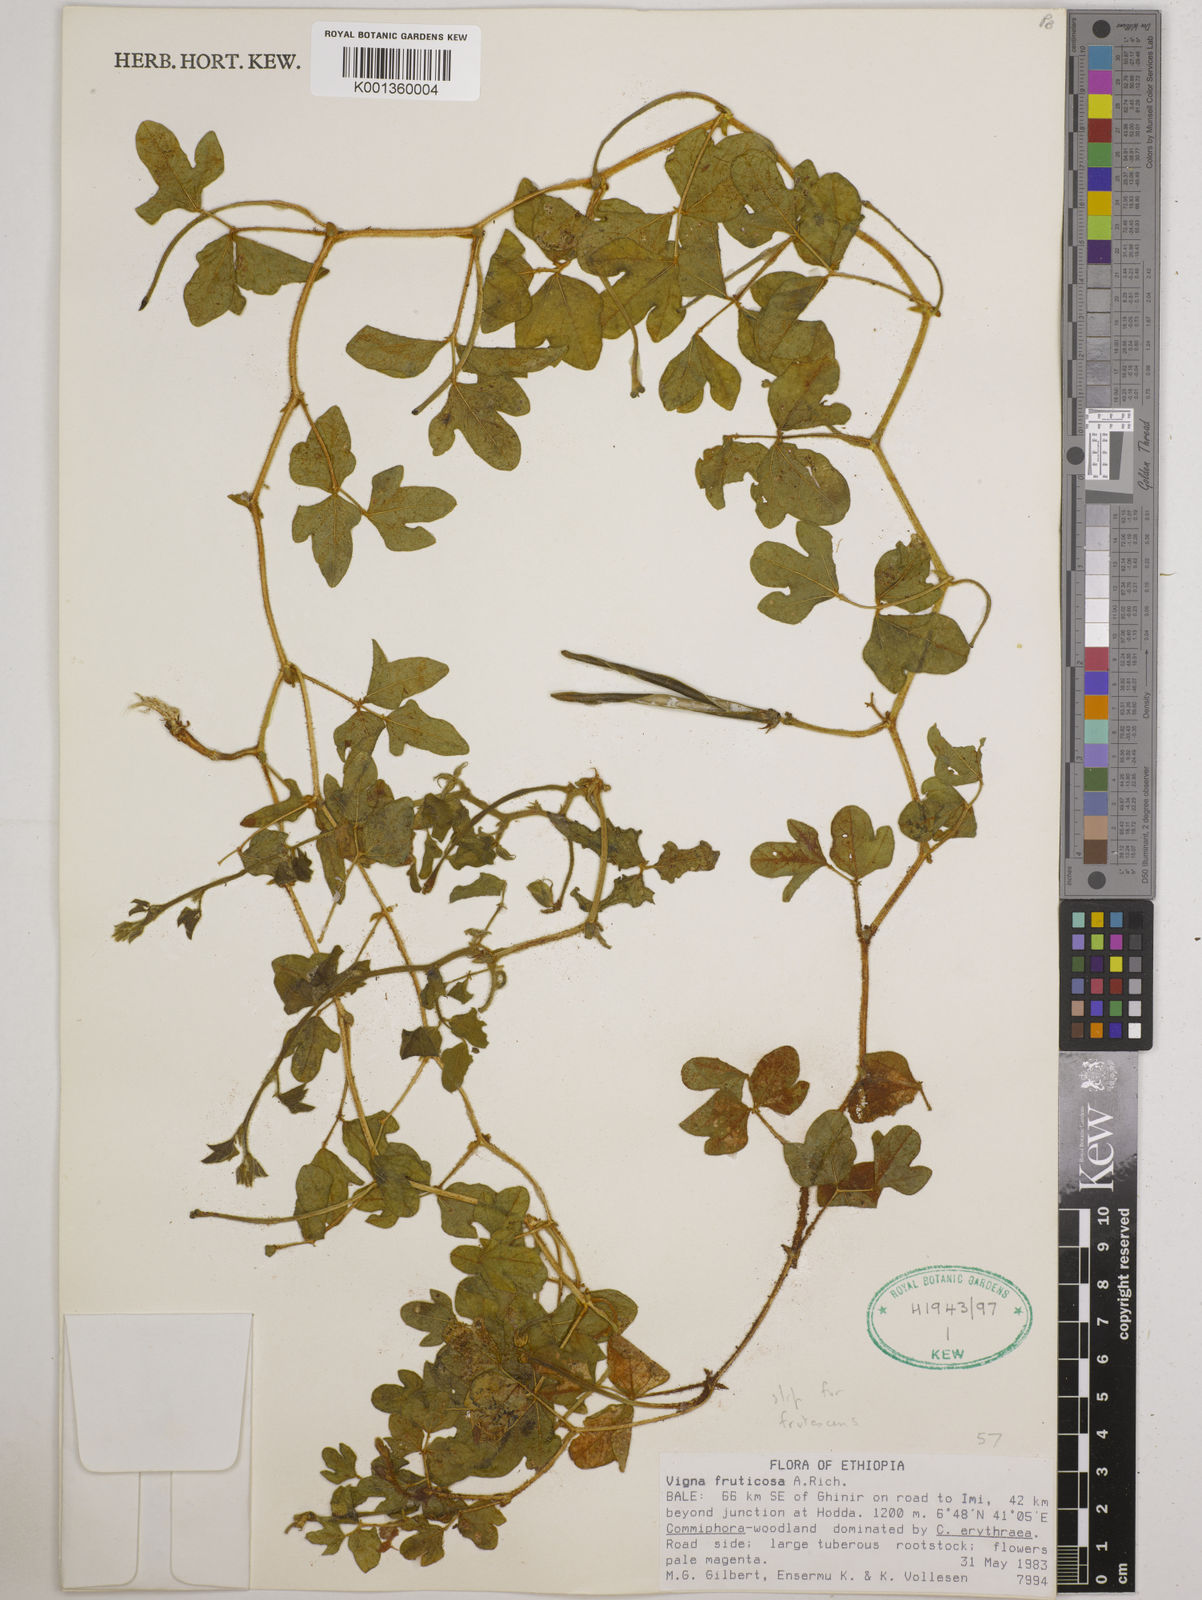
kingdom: Plantae
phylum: Tracheophyta
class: Magnoliopsida
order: Fabales
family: Fabaceae
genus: Vigna
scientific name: Vigna frutescens
